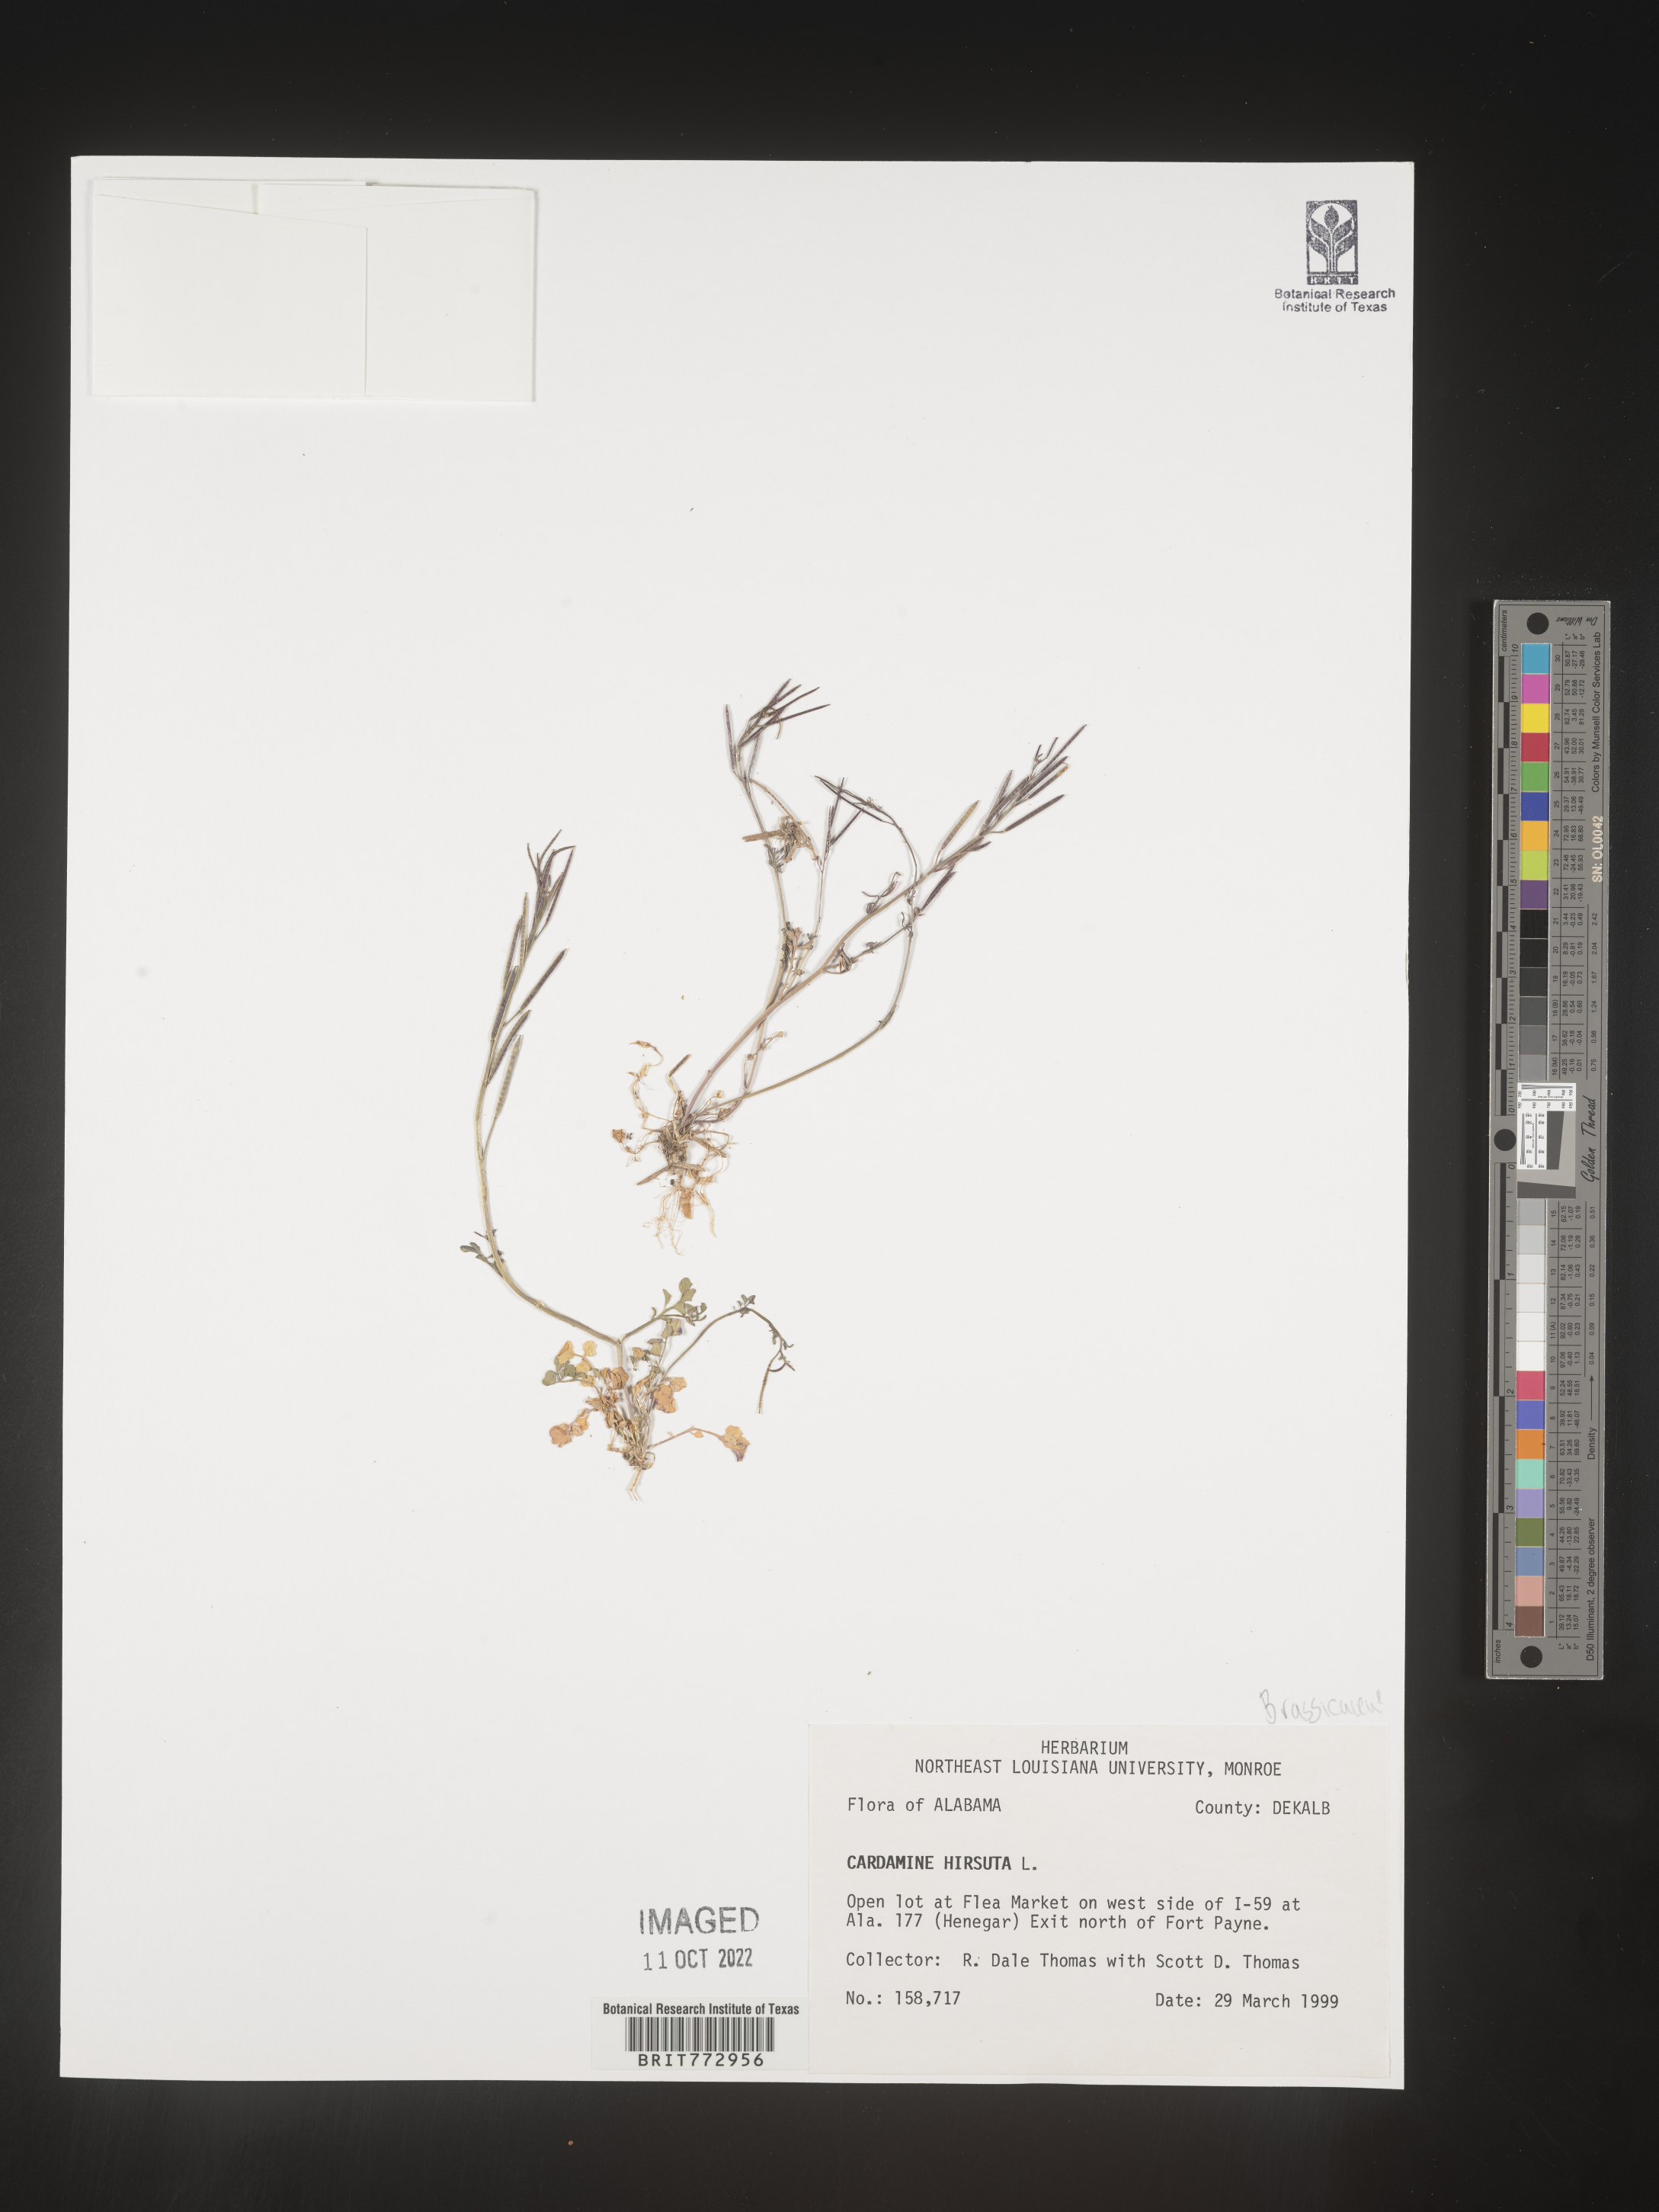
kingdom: Plantae
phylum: Tracheophyta
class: Magnoliopsida
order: Brassicales
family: Brassicaceae
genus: Cardamine
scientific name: Cardamine hirsuta
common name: Hairy bittercress
